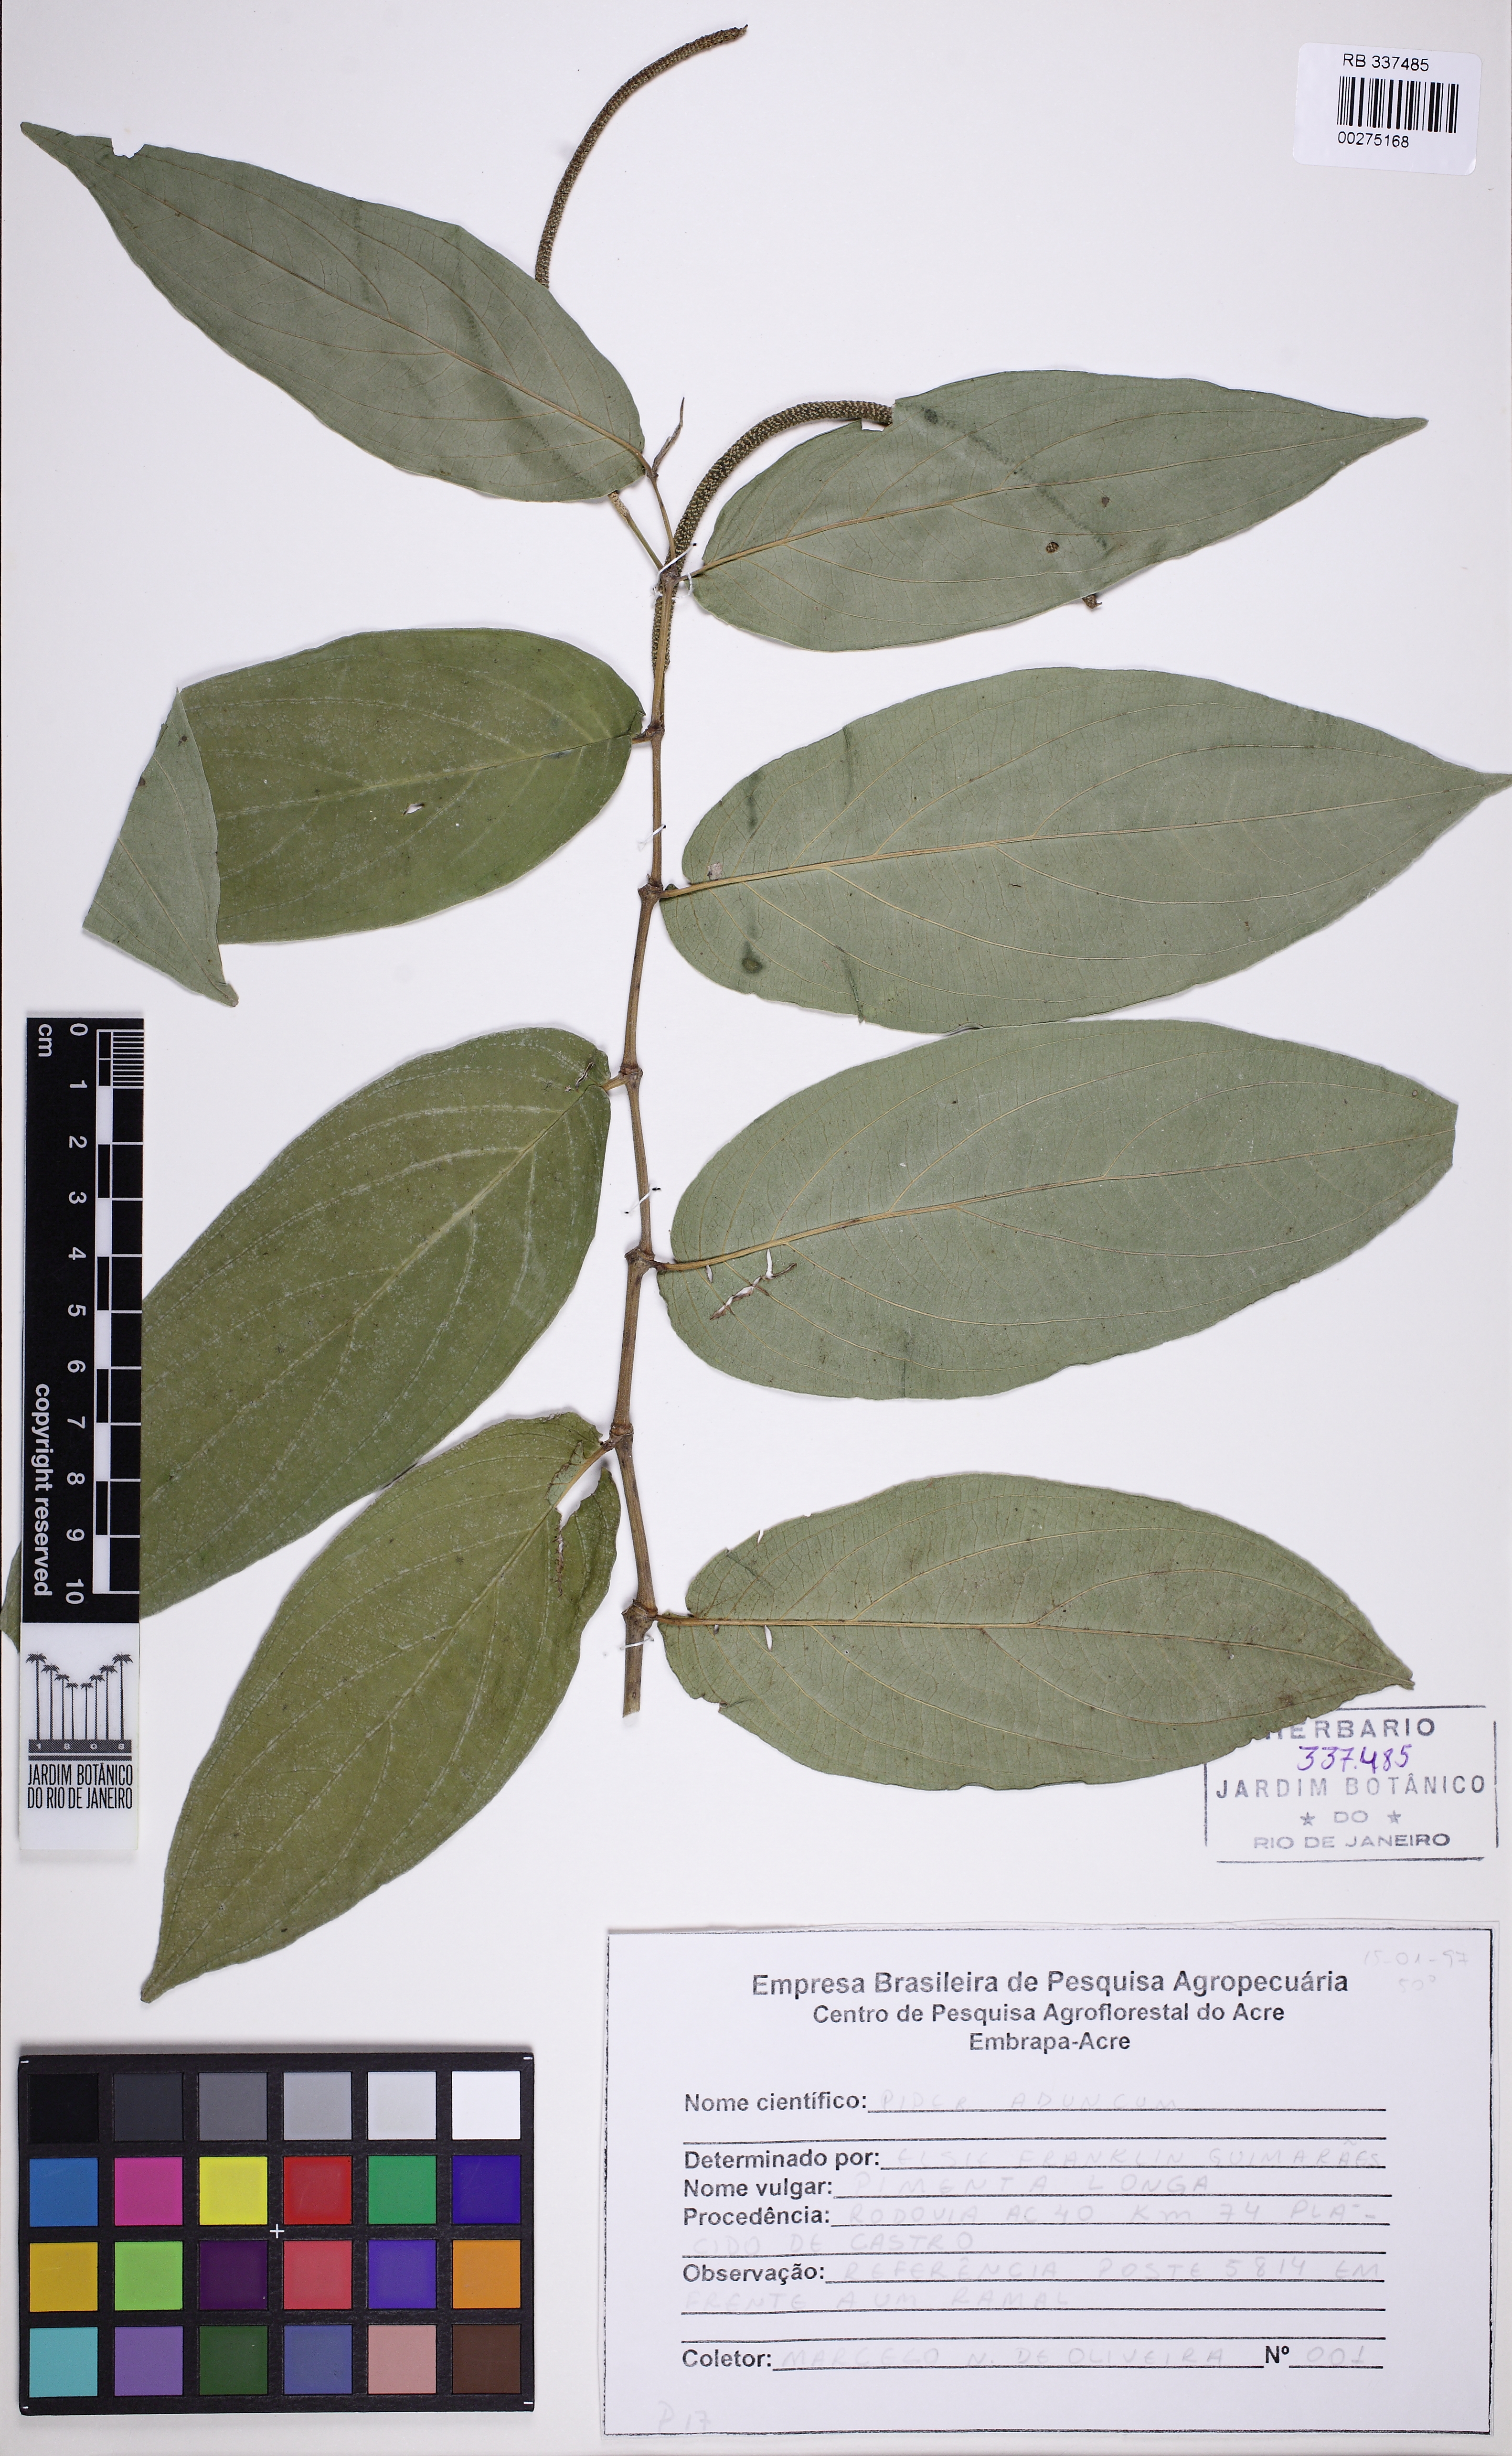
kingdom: Plantae
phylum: Tracheophyta
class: Magnoliopsida
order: Piperales
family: Piperaceae
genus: Piper
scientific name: Piper aduncum
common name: Spiked pepper
